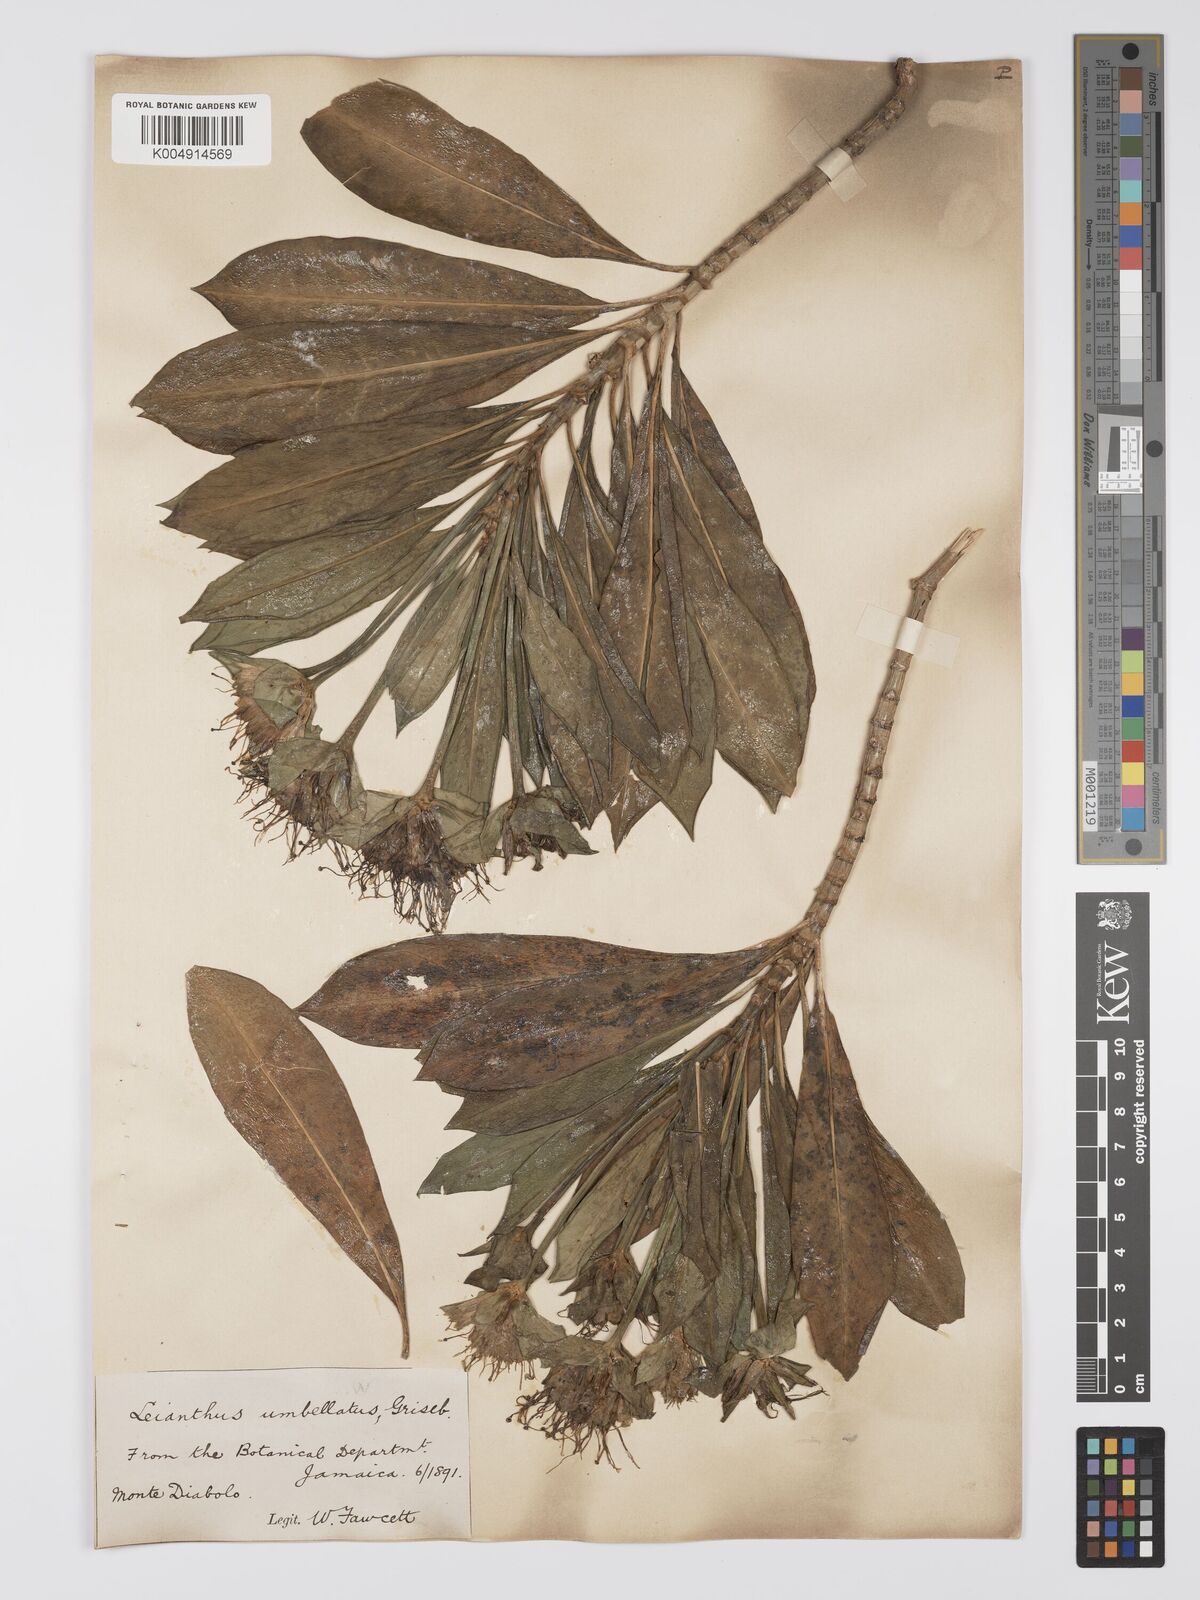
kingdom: Plantae
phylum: Tracheophyta
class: Magnoliopsida
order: Gentianales
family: Gentianaceae
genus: Lisianthus
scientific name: Lisianthus umbellatus
